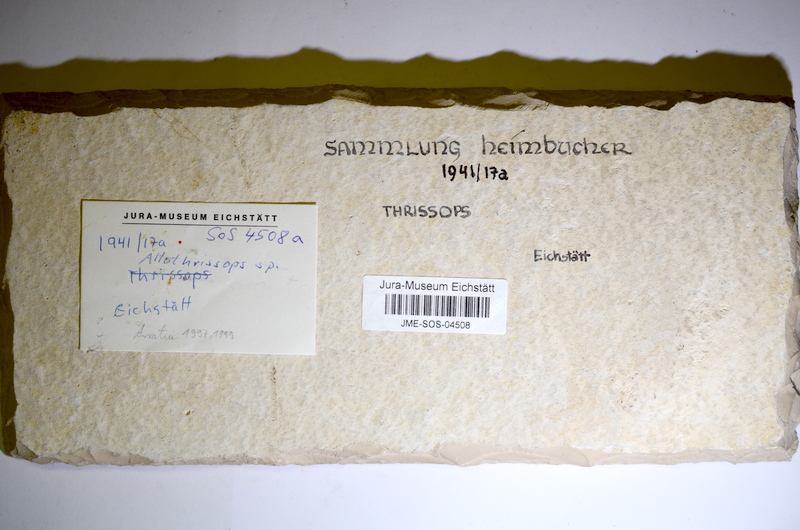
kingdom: Animalia
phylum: Chordata
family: Allothrissopidae
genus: Allothrissops
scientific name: Allothrissops
